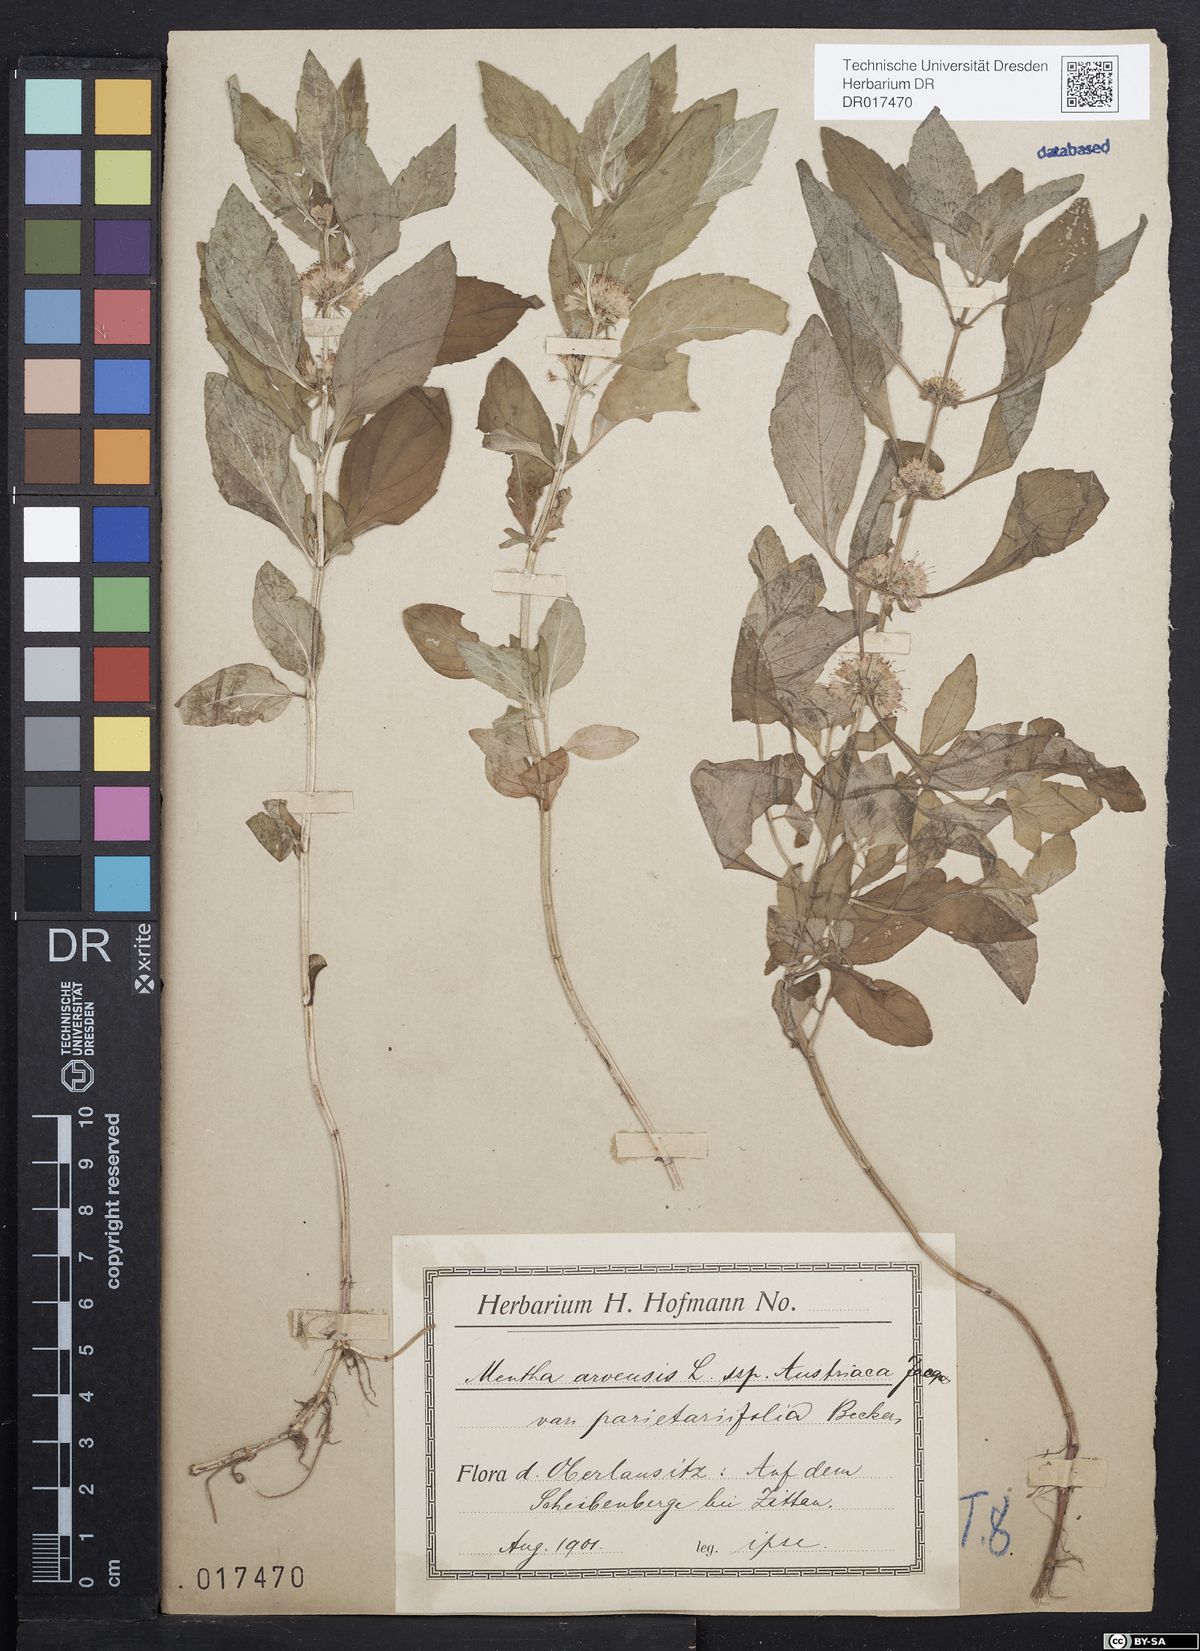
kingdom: Plantae
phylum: Tracheophyta
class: Magnoliopsida
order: Lamiales
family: Lamiaceae
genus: Mentha
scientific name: Mentha arvensis
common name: Corn mint
